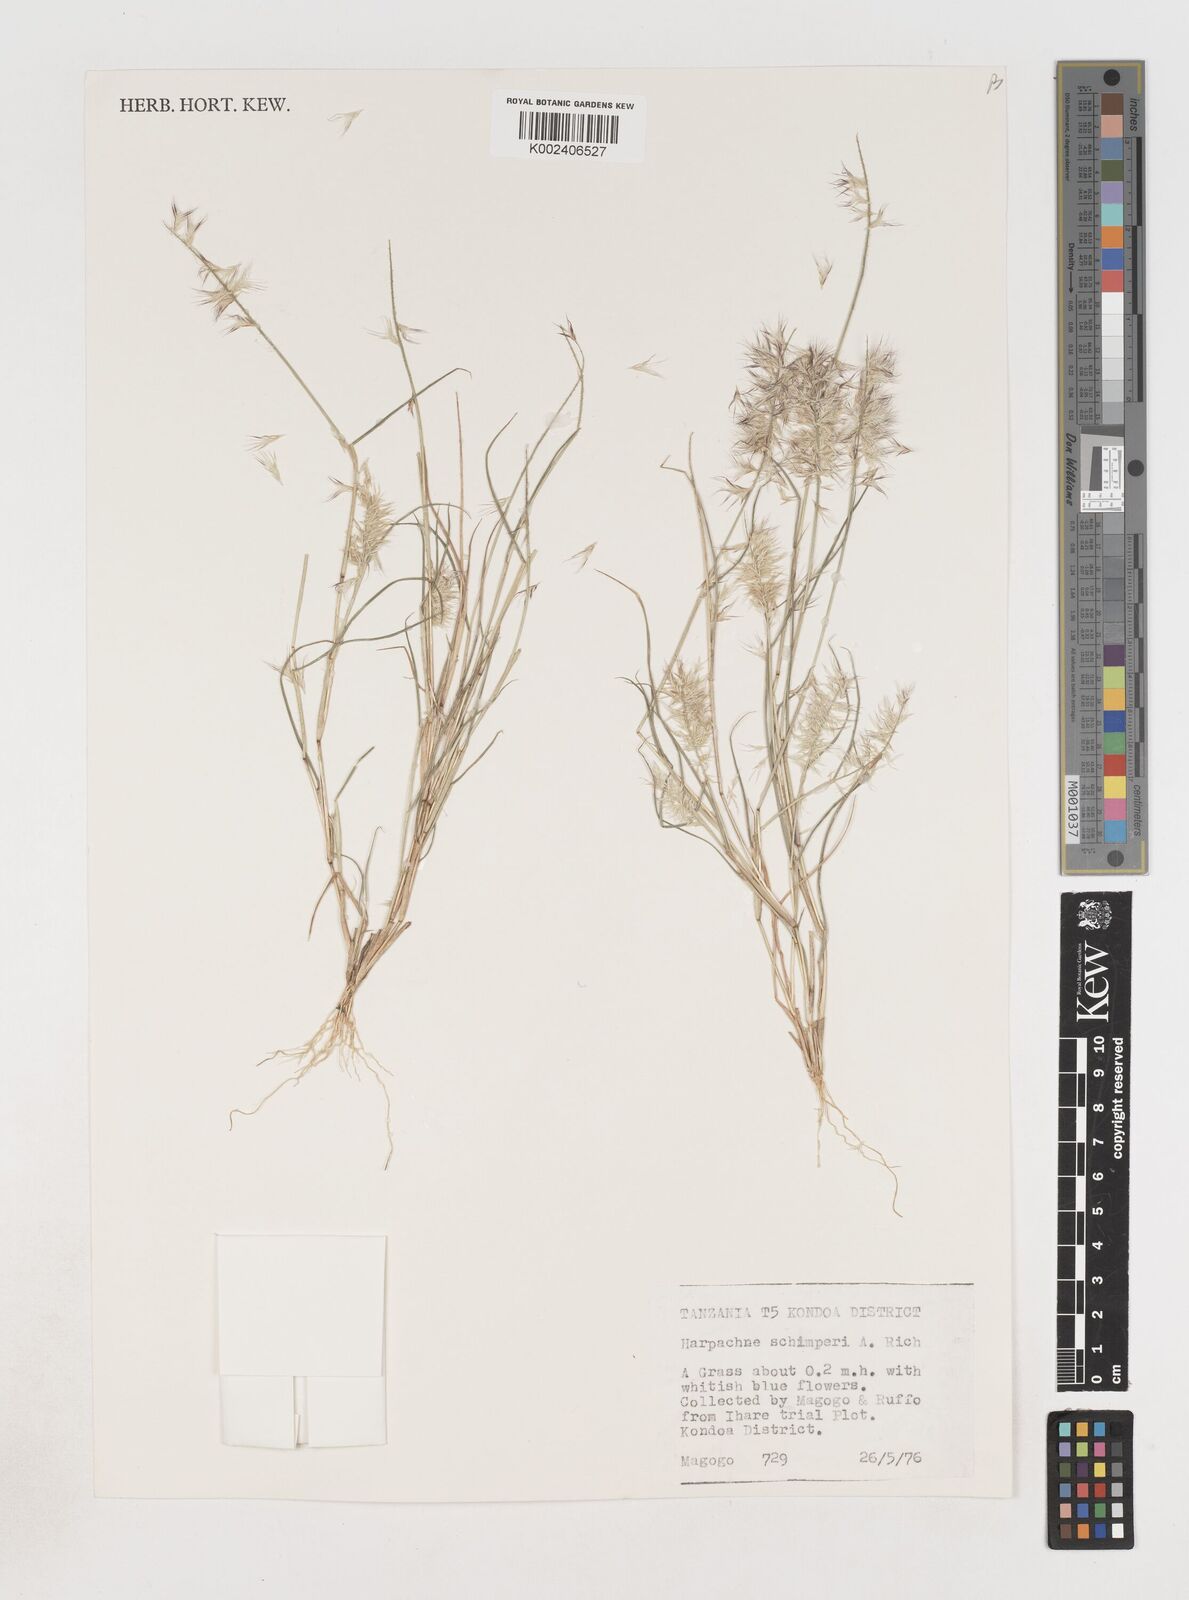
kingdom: Plantae
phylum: Tracheophyta
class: Liliopsida
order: Poales
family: Poaceae
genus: Harpachne
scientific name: Harpachne schimperi
